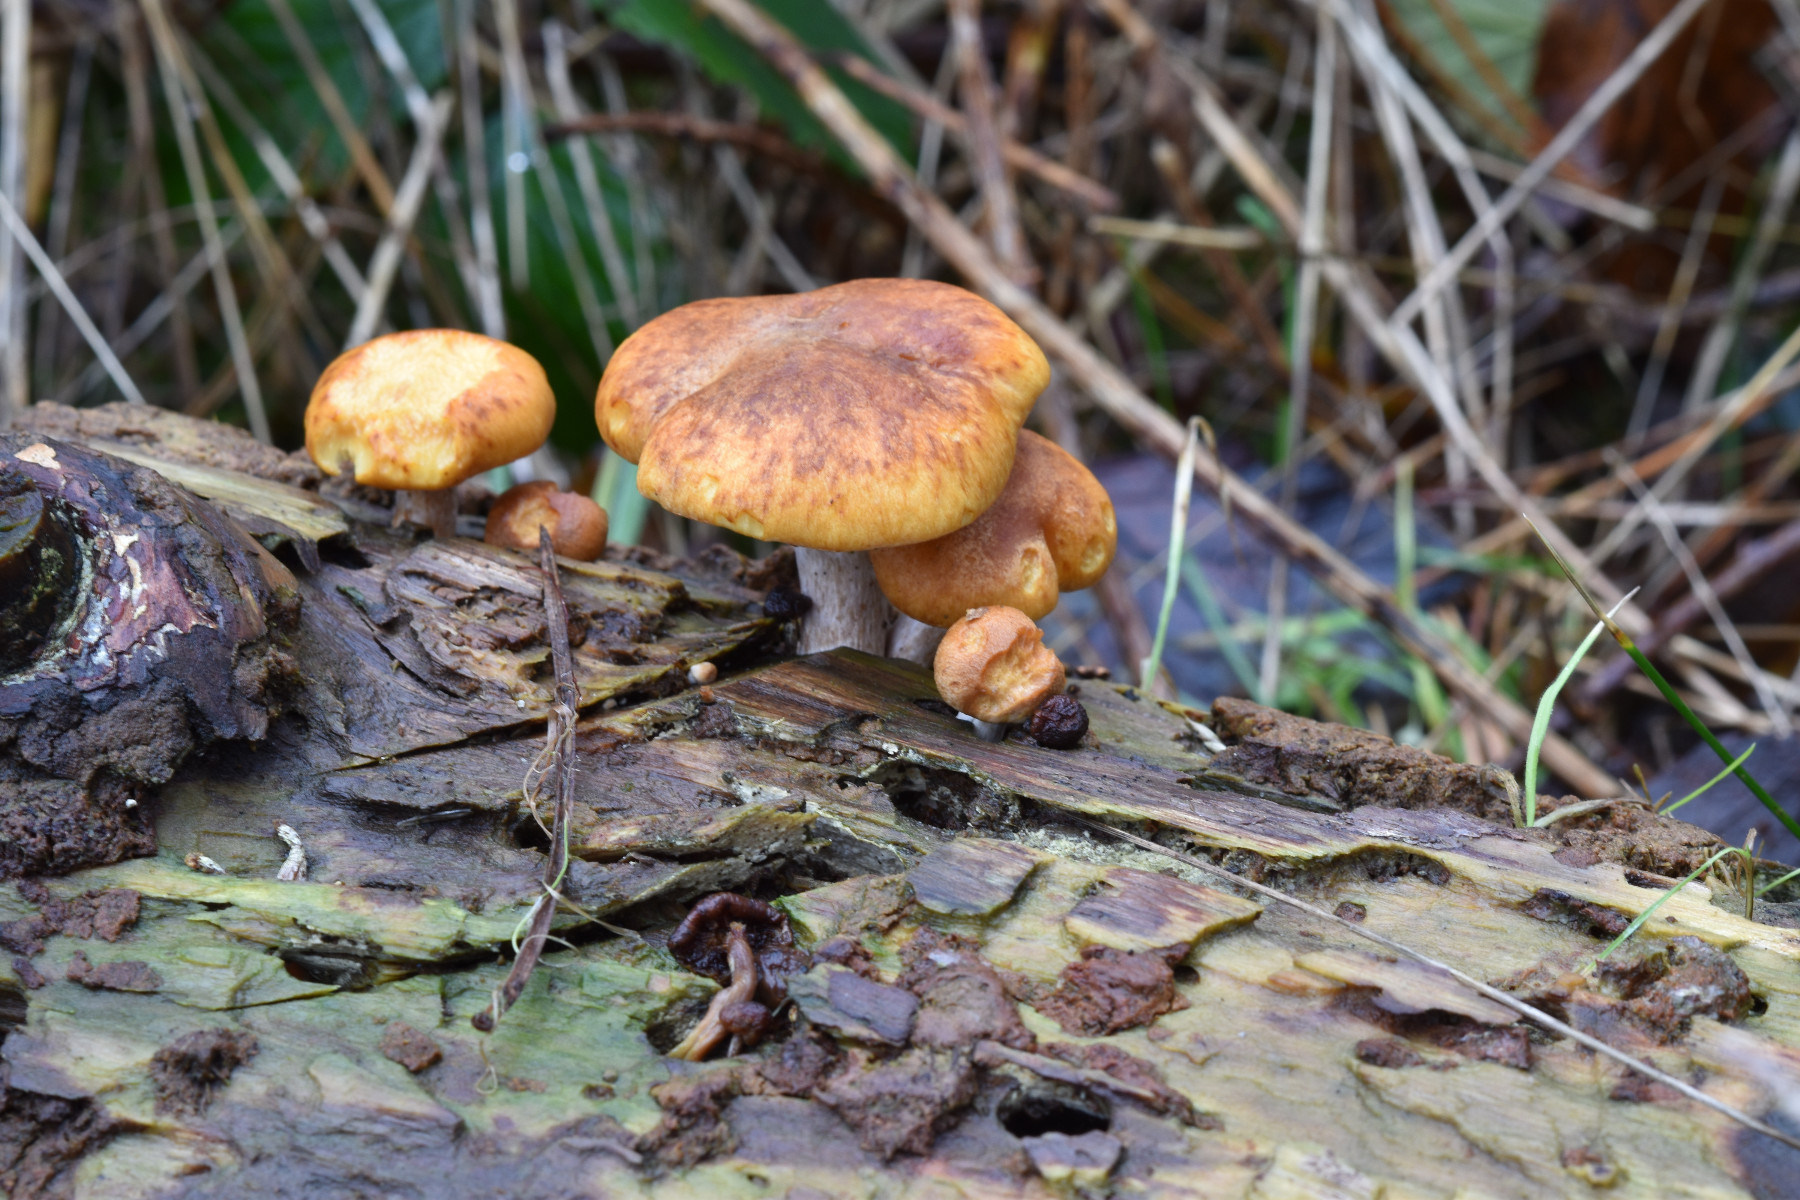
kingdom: Fungi
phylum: Basidiomycota
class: Agaricomycetes
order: Agaricales
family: Hymenogastraceae
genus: Gymnopilus
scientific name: Gymnopilus penetrans
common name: plettet flammehat
